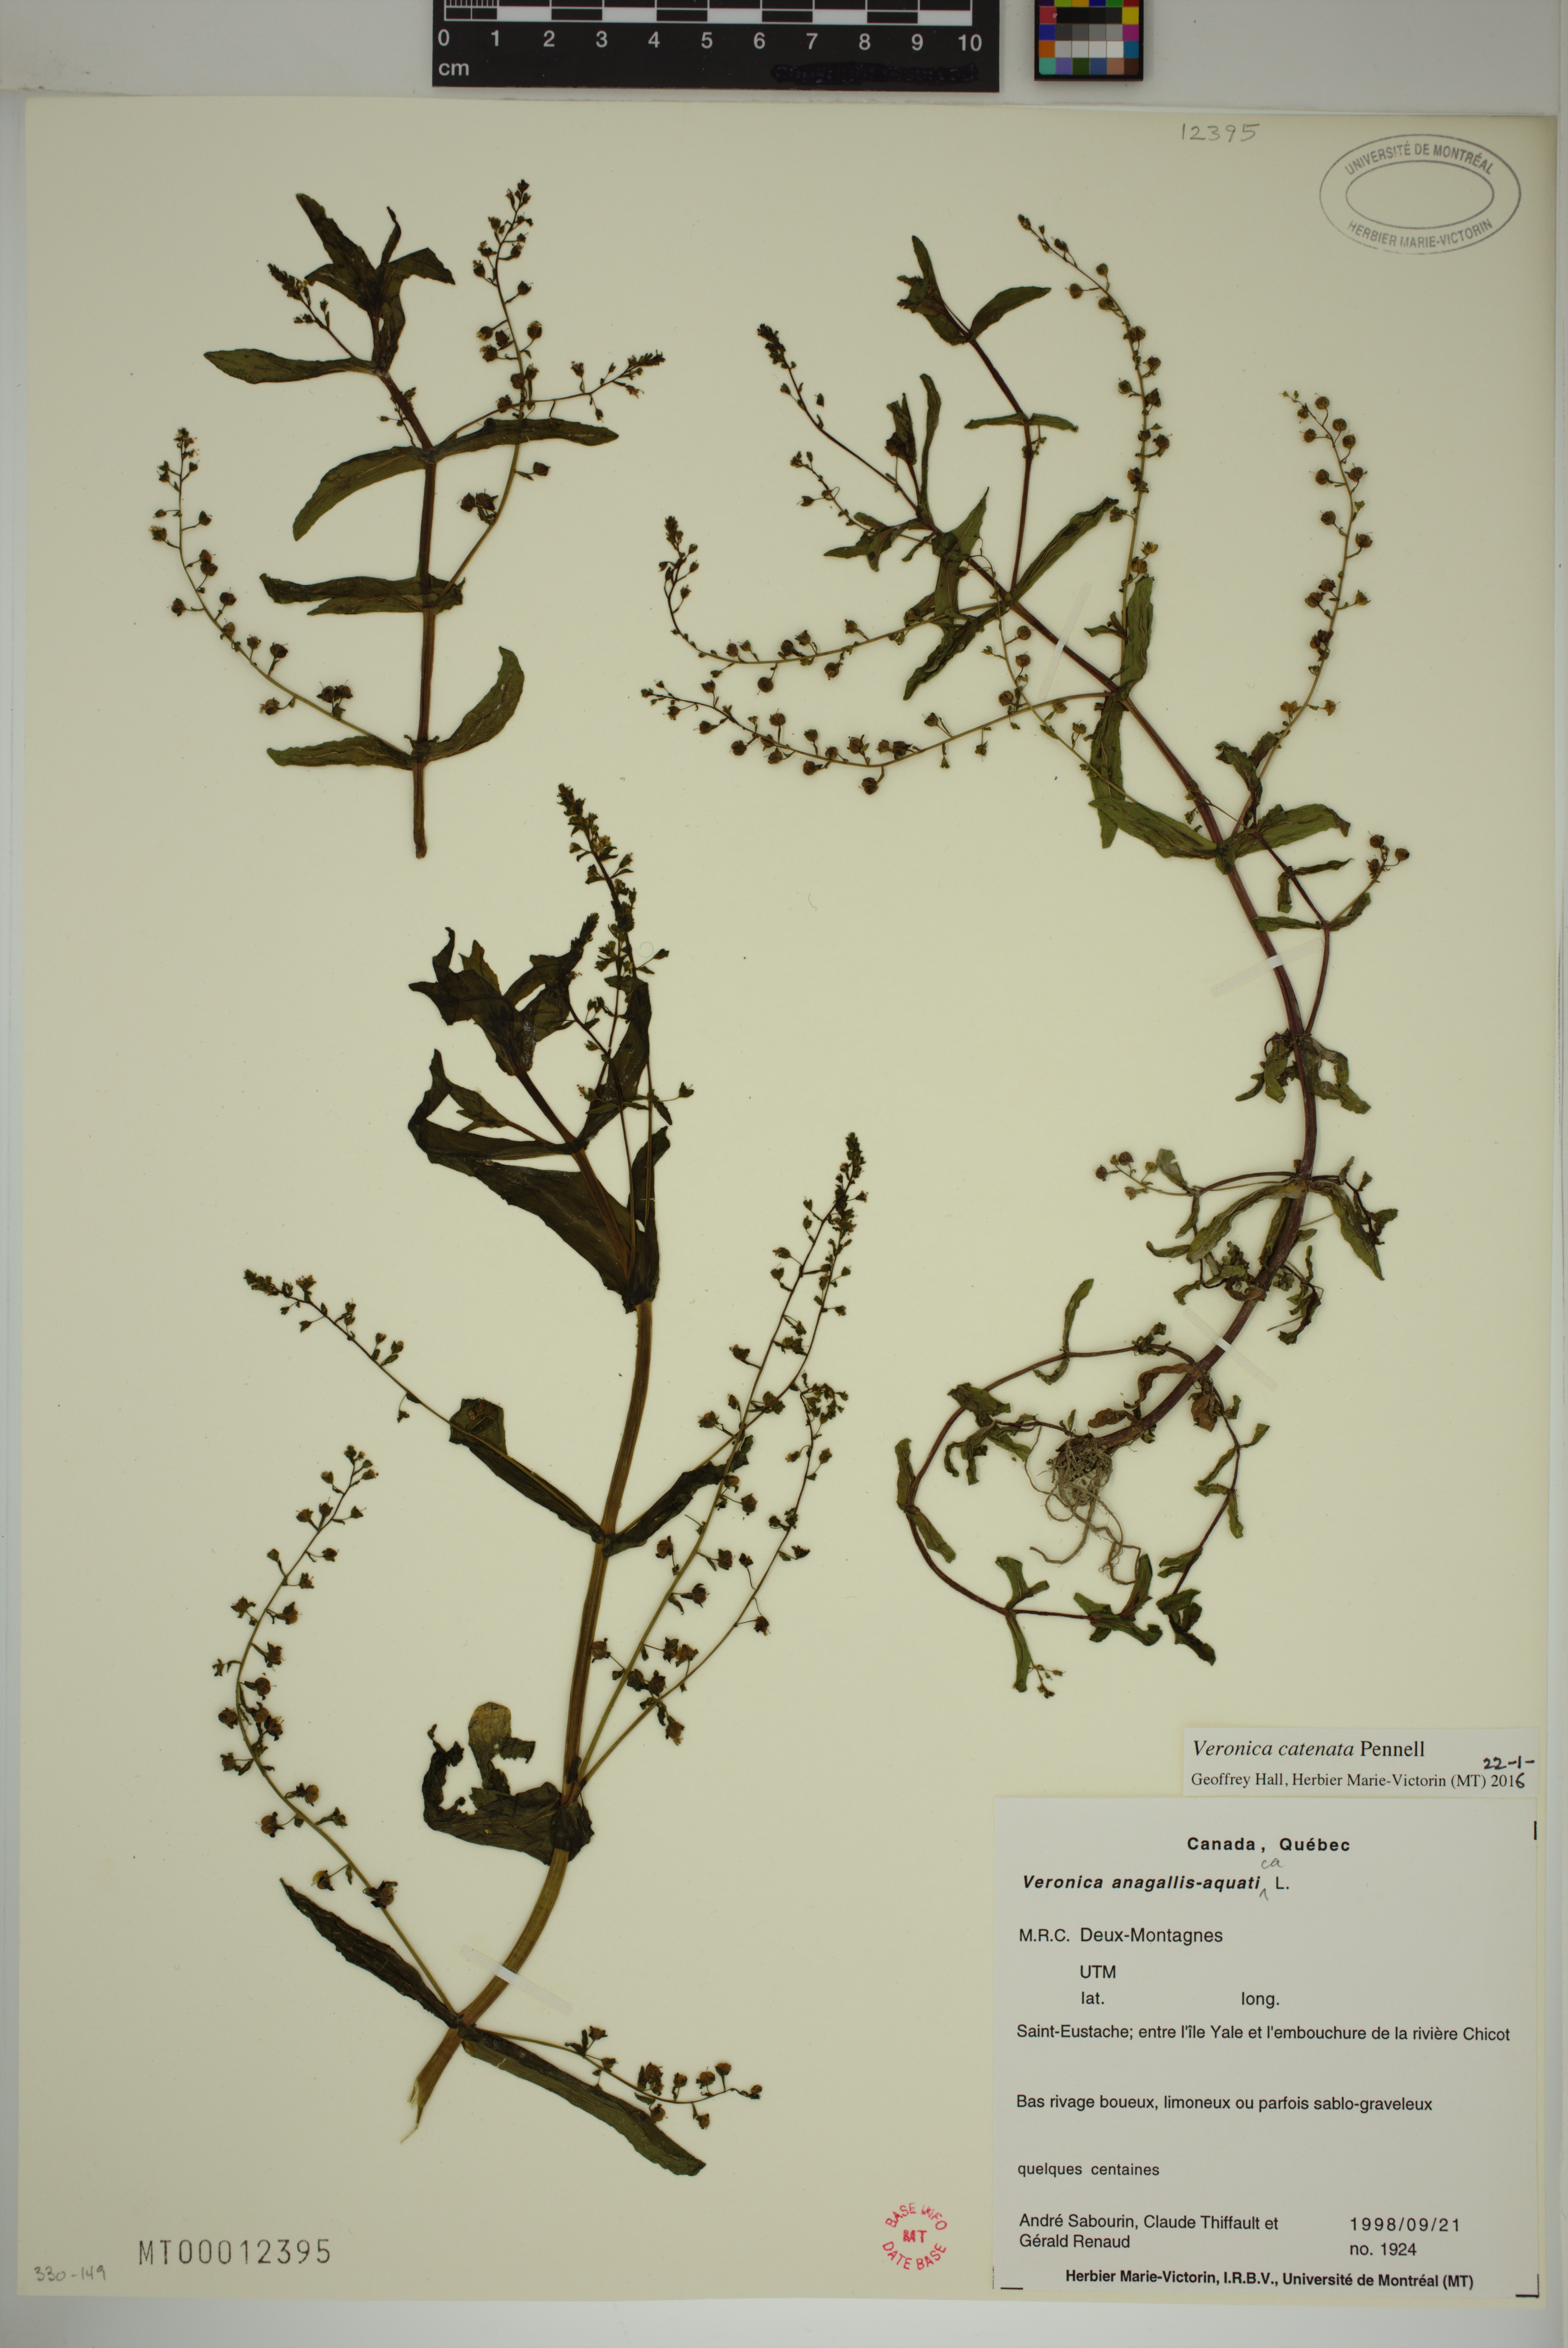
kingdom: Plantae
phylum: Tracheophyta
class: Magnoliopsida
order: Lamiales
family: Plantaginaceae
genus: Veronica
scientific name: Veronica catenata
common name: Pink water-speedwell
